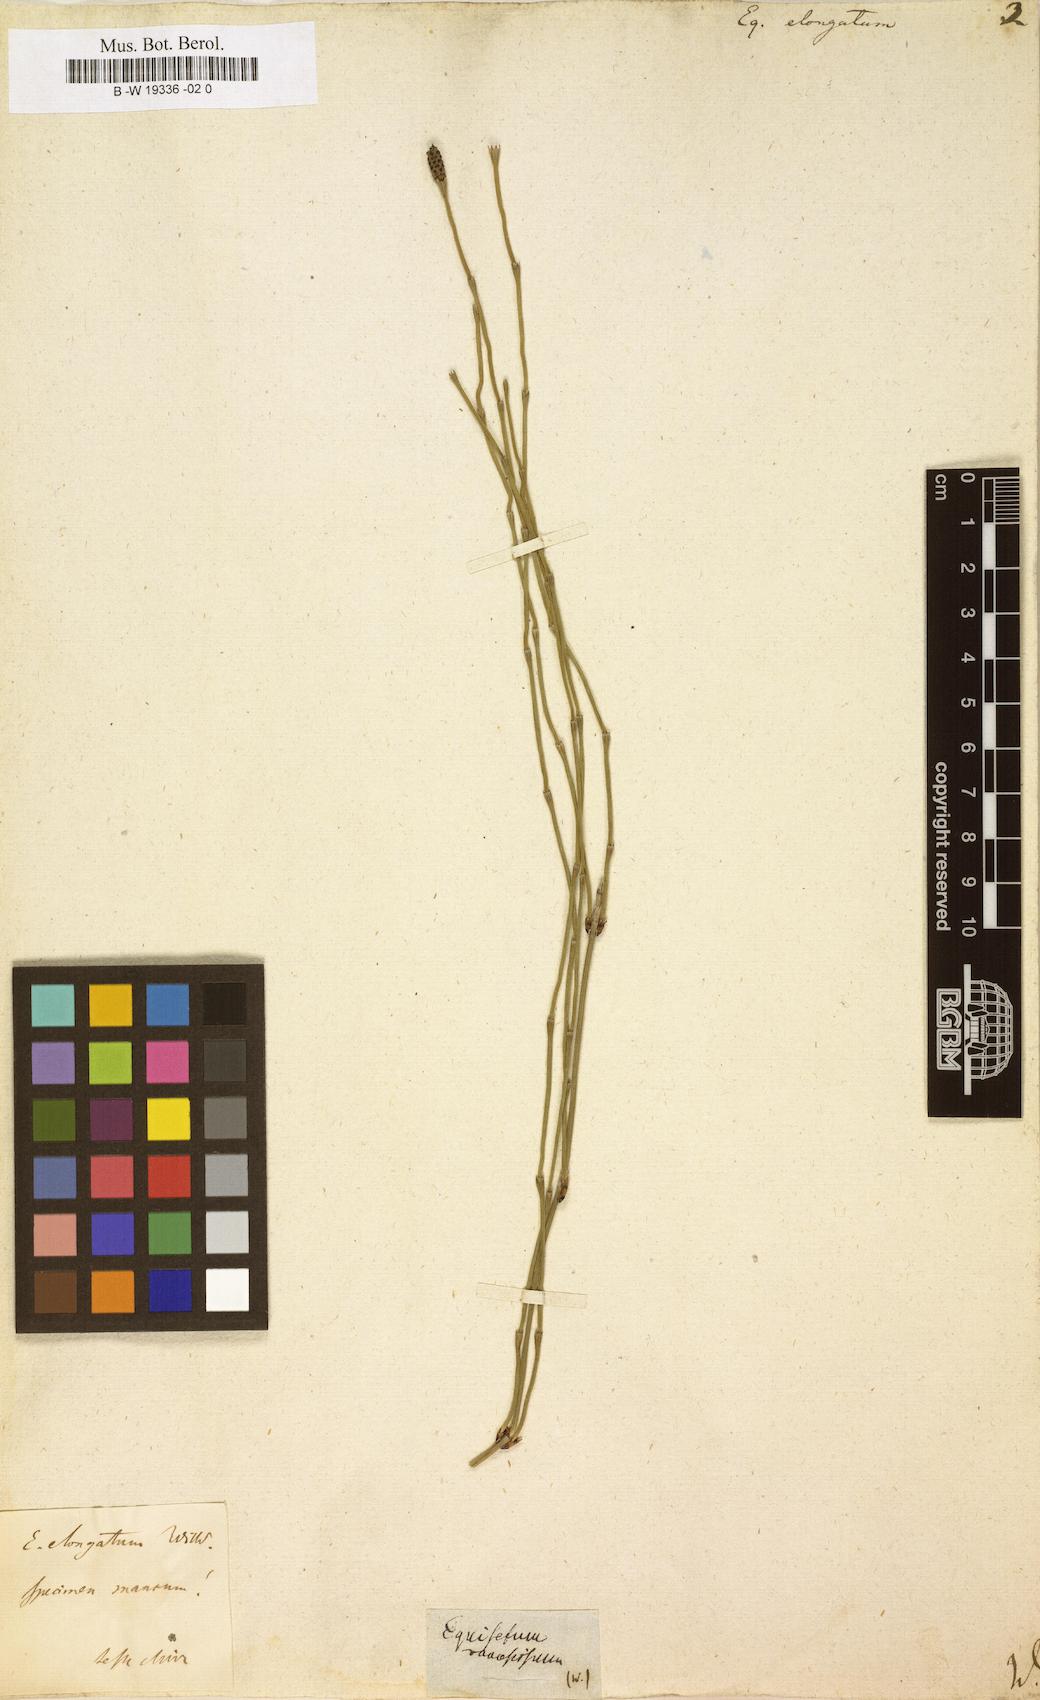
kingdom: Plantae
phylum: Tracheophyta
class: Polypodiopsida
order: Equisetales
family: Equisetaceae
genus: Equisetum
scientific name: Equisetum ramosissimum
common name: Branched horsetail
